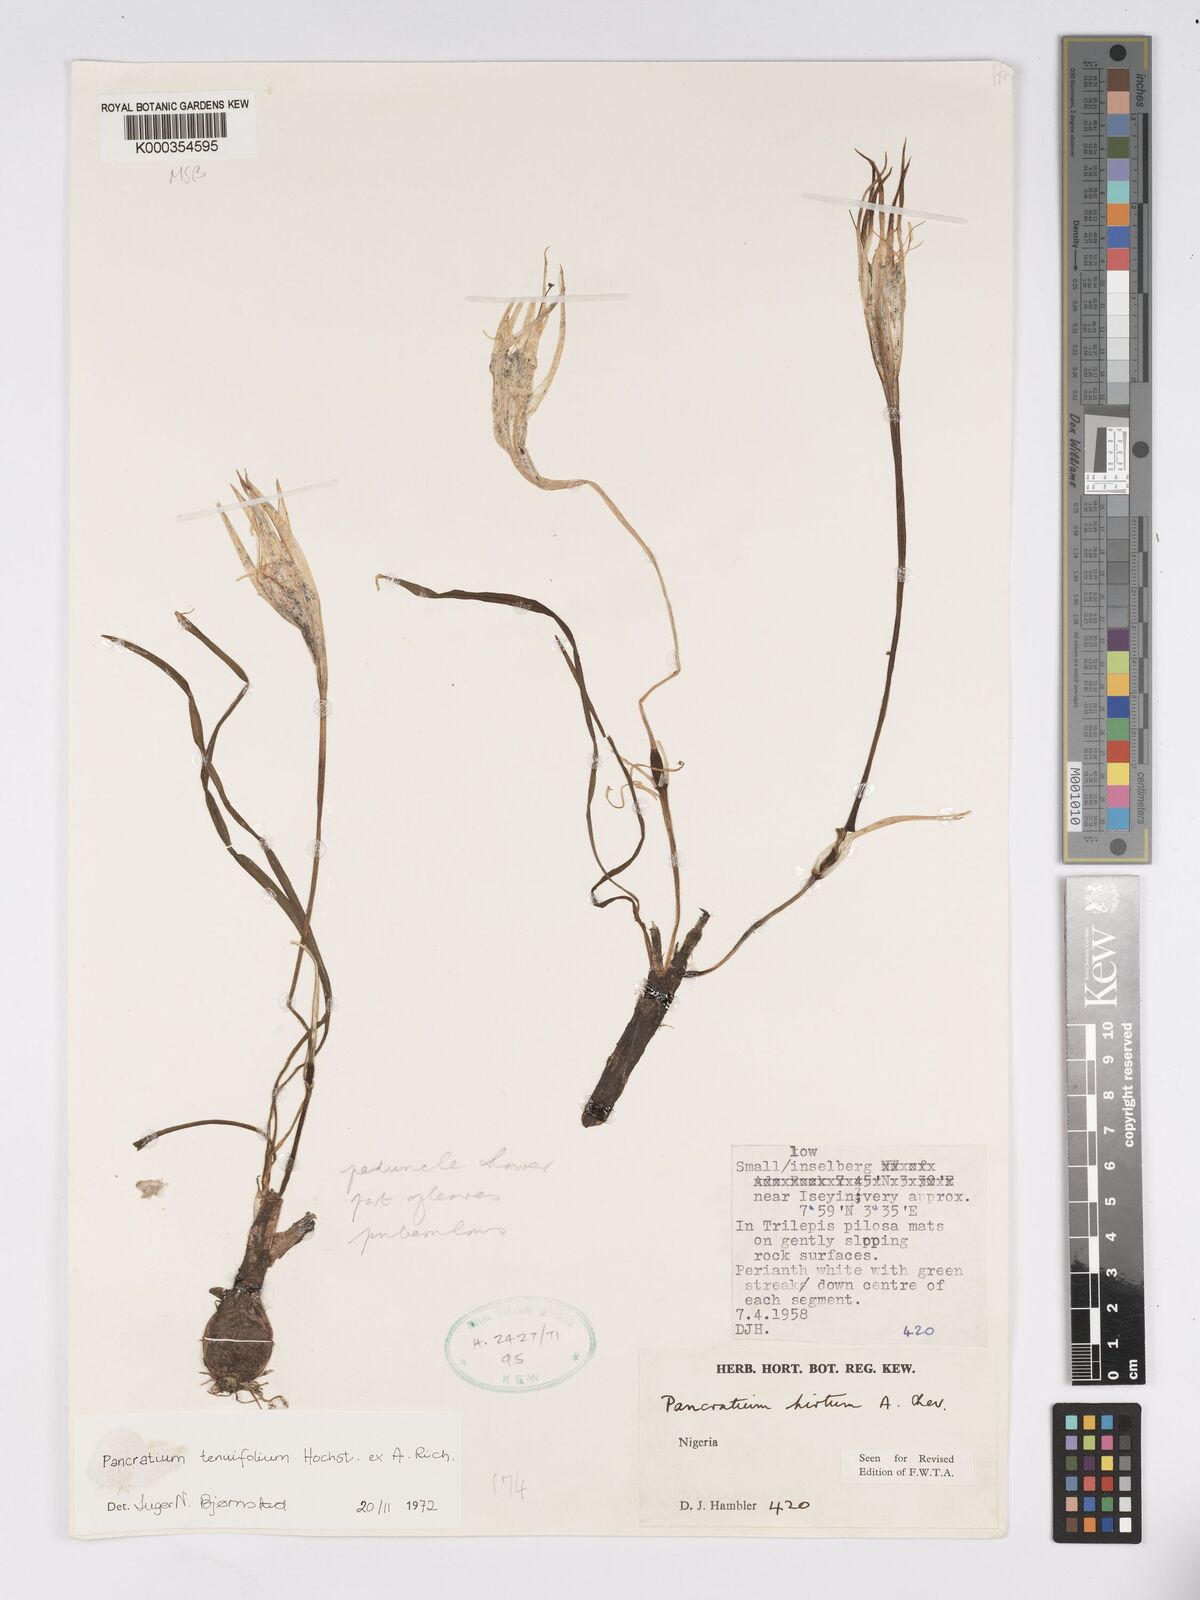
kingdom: Plantae
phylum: Tracheophyta
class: Liliopsida
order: Asparagales
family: Amaryllidaceae
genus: Pancratium
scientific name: Pancratium tenuifolium
